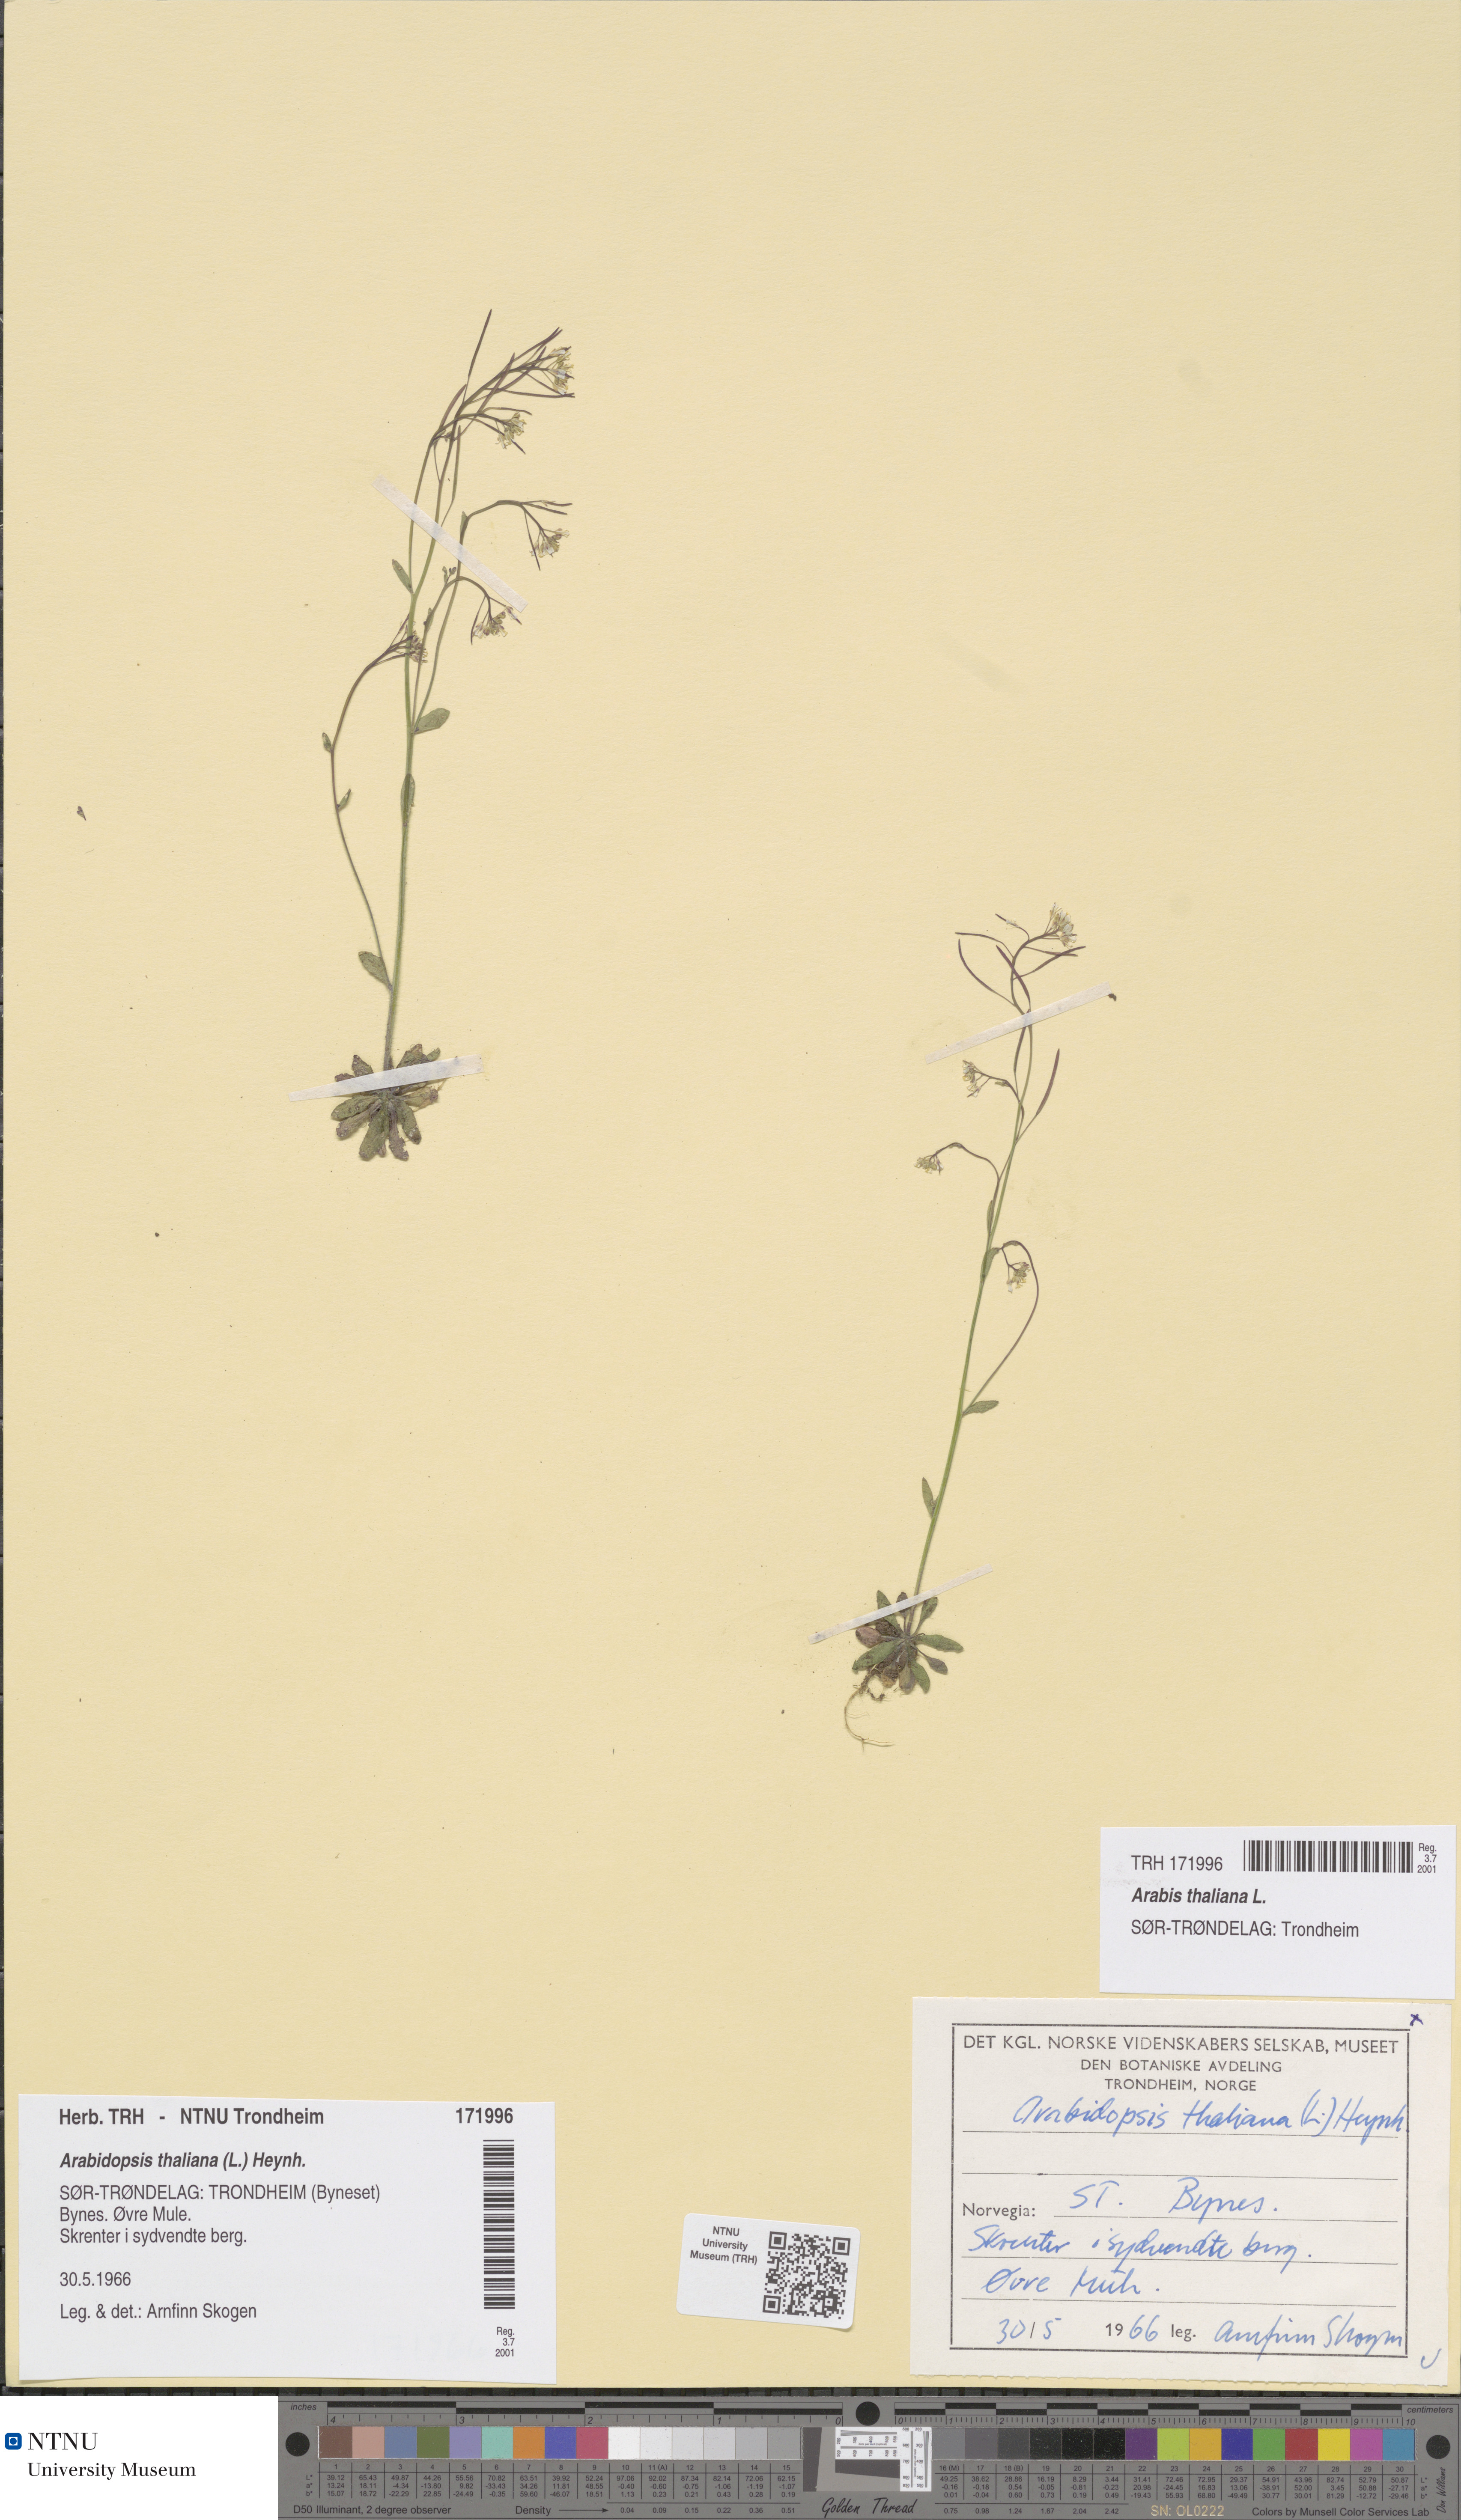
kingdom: Plantae
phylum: Tracheophyta
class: Magnoliopsida
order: Brassicales
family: Brassicaceae
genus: Arabidopsis
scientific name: Arabidopsis thaliana
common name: Thale cress
